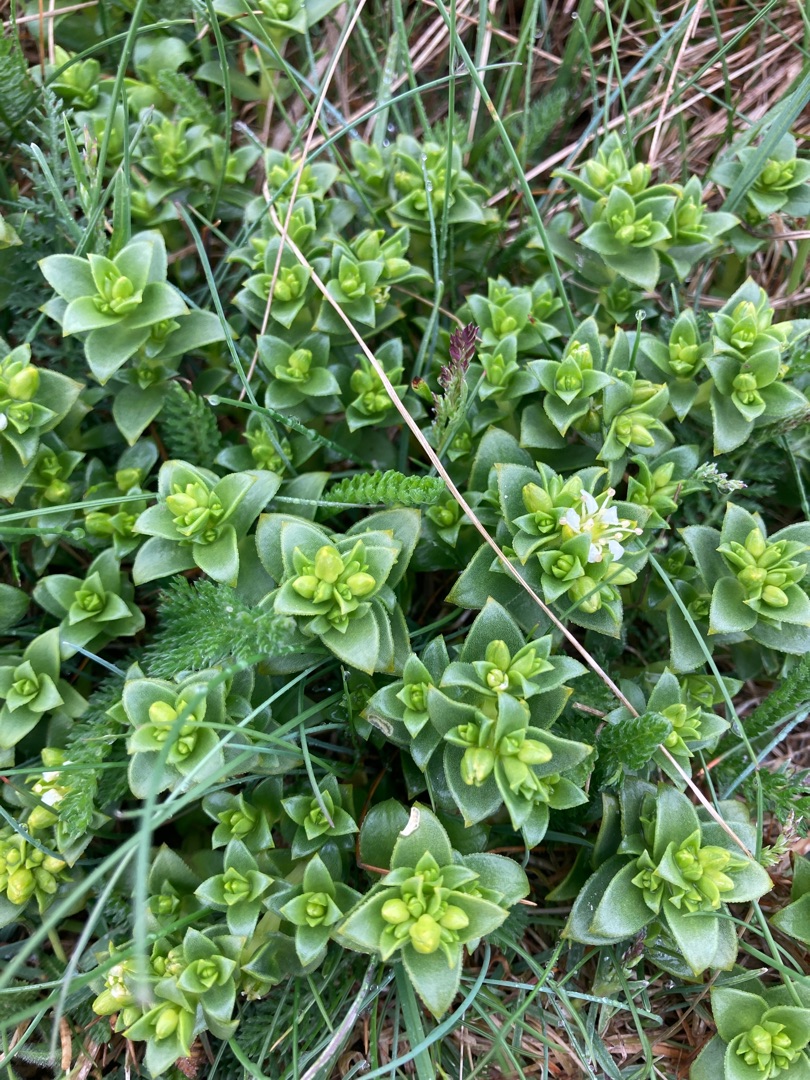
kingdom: Plantae
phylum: Tracheophyta
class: Magnoliopsida
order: Caryophyllales
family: Caryophyllaceae
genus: Honckenya
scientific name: Honckenya peploides
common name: Strandarve
